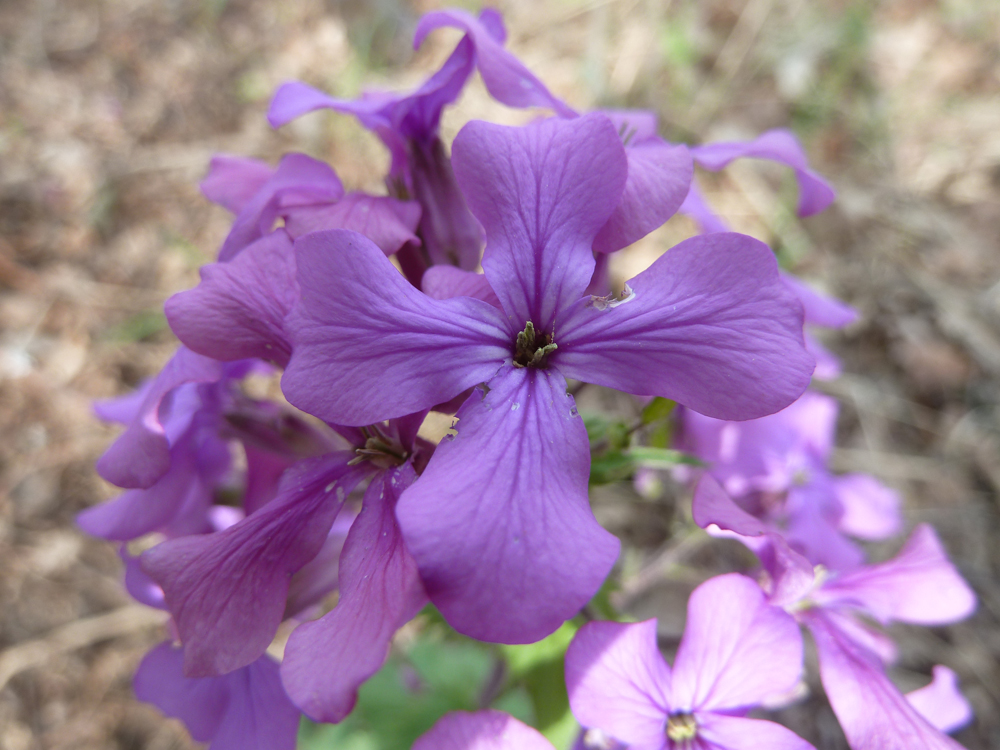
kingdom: Plantae
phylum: Tracheophyta
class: Magnoliopsida
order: Brassicales
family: Brassicaceae
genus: Lunaria
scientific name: Lunaria annua
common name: Honesty
